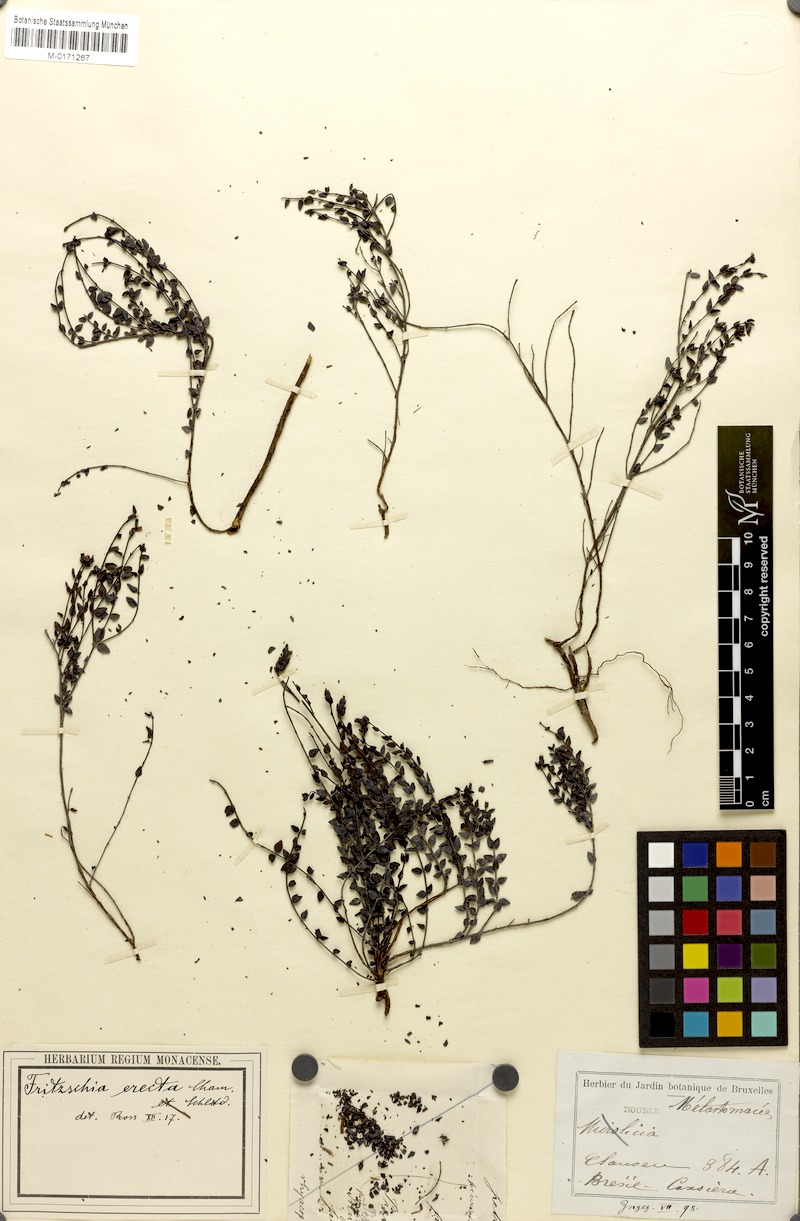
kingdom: Plantae
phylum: Tracheophyta
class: Magnoliopsida
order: Myrtales
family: Melastomataceae
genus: Fritzschia
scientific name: Fritzschia erecta
